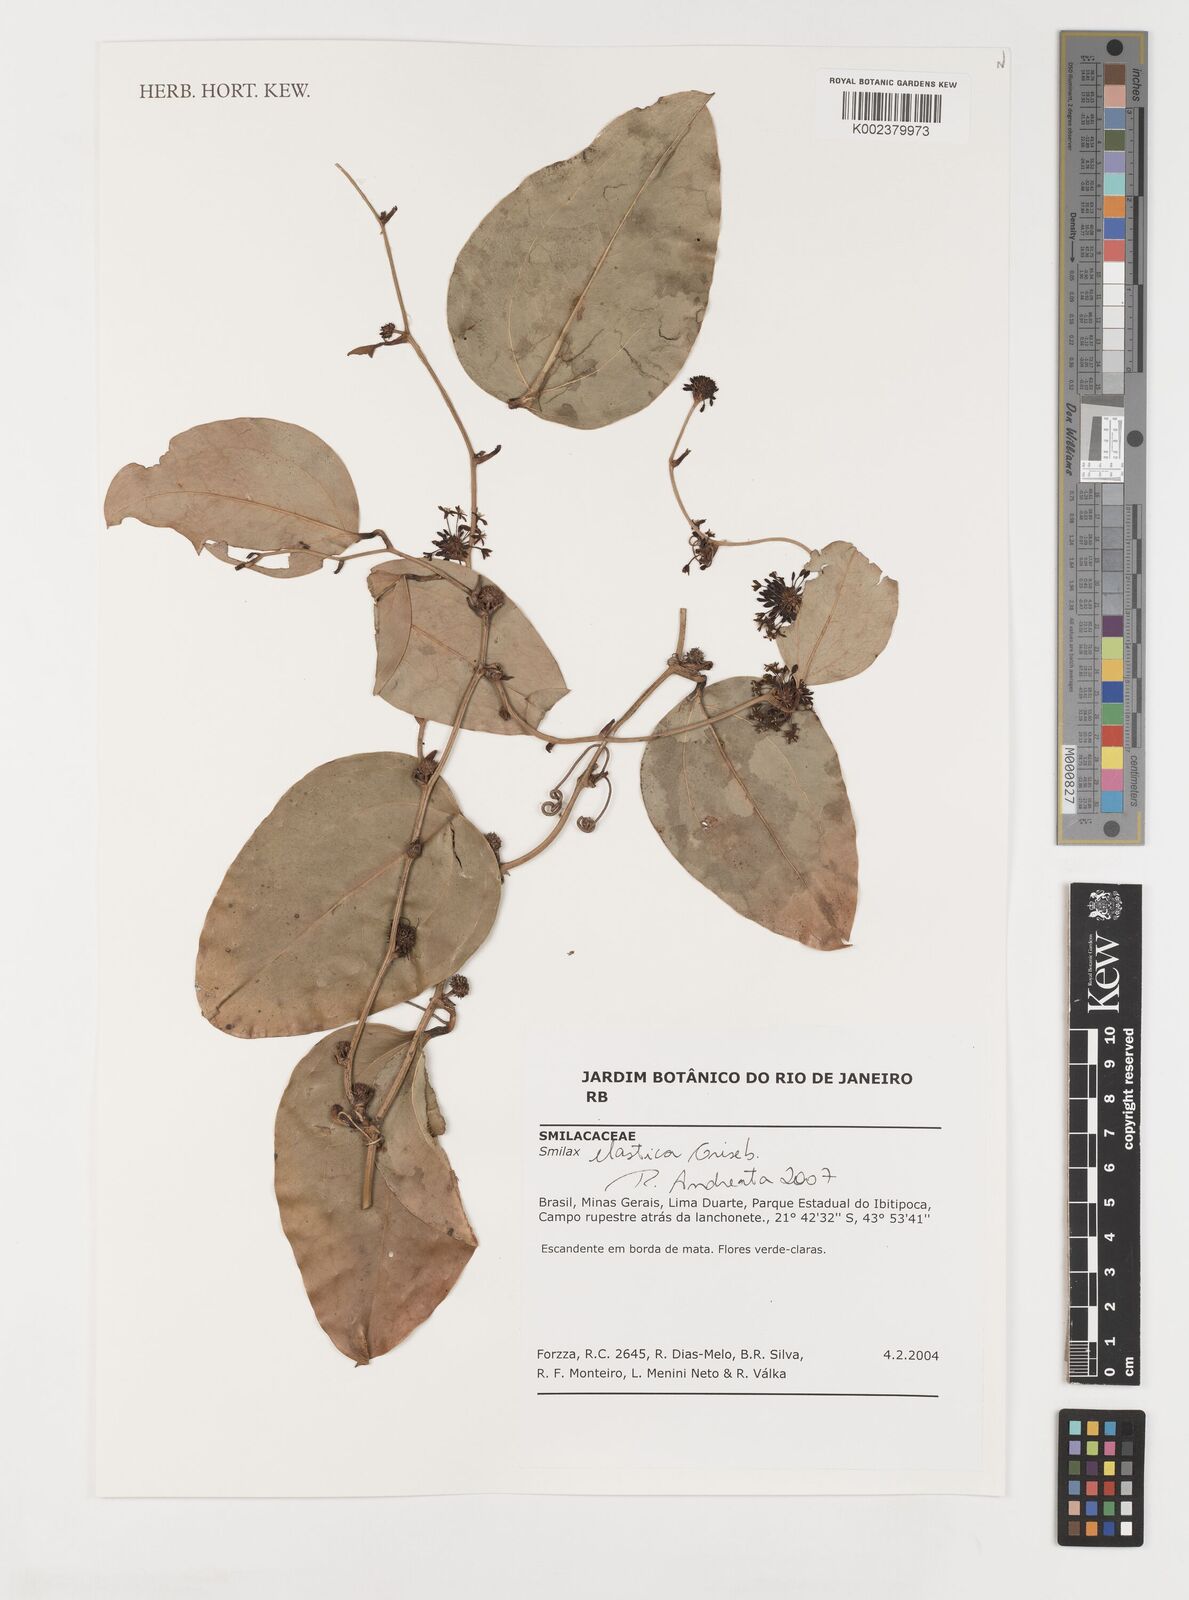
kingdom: Plantae
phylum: Tracheophyta
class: Liliopsida
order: Liliales
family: Smilacaceae
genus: Smilax
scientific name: Smilax elastica
